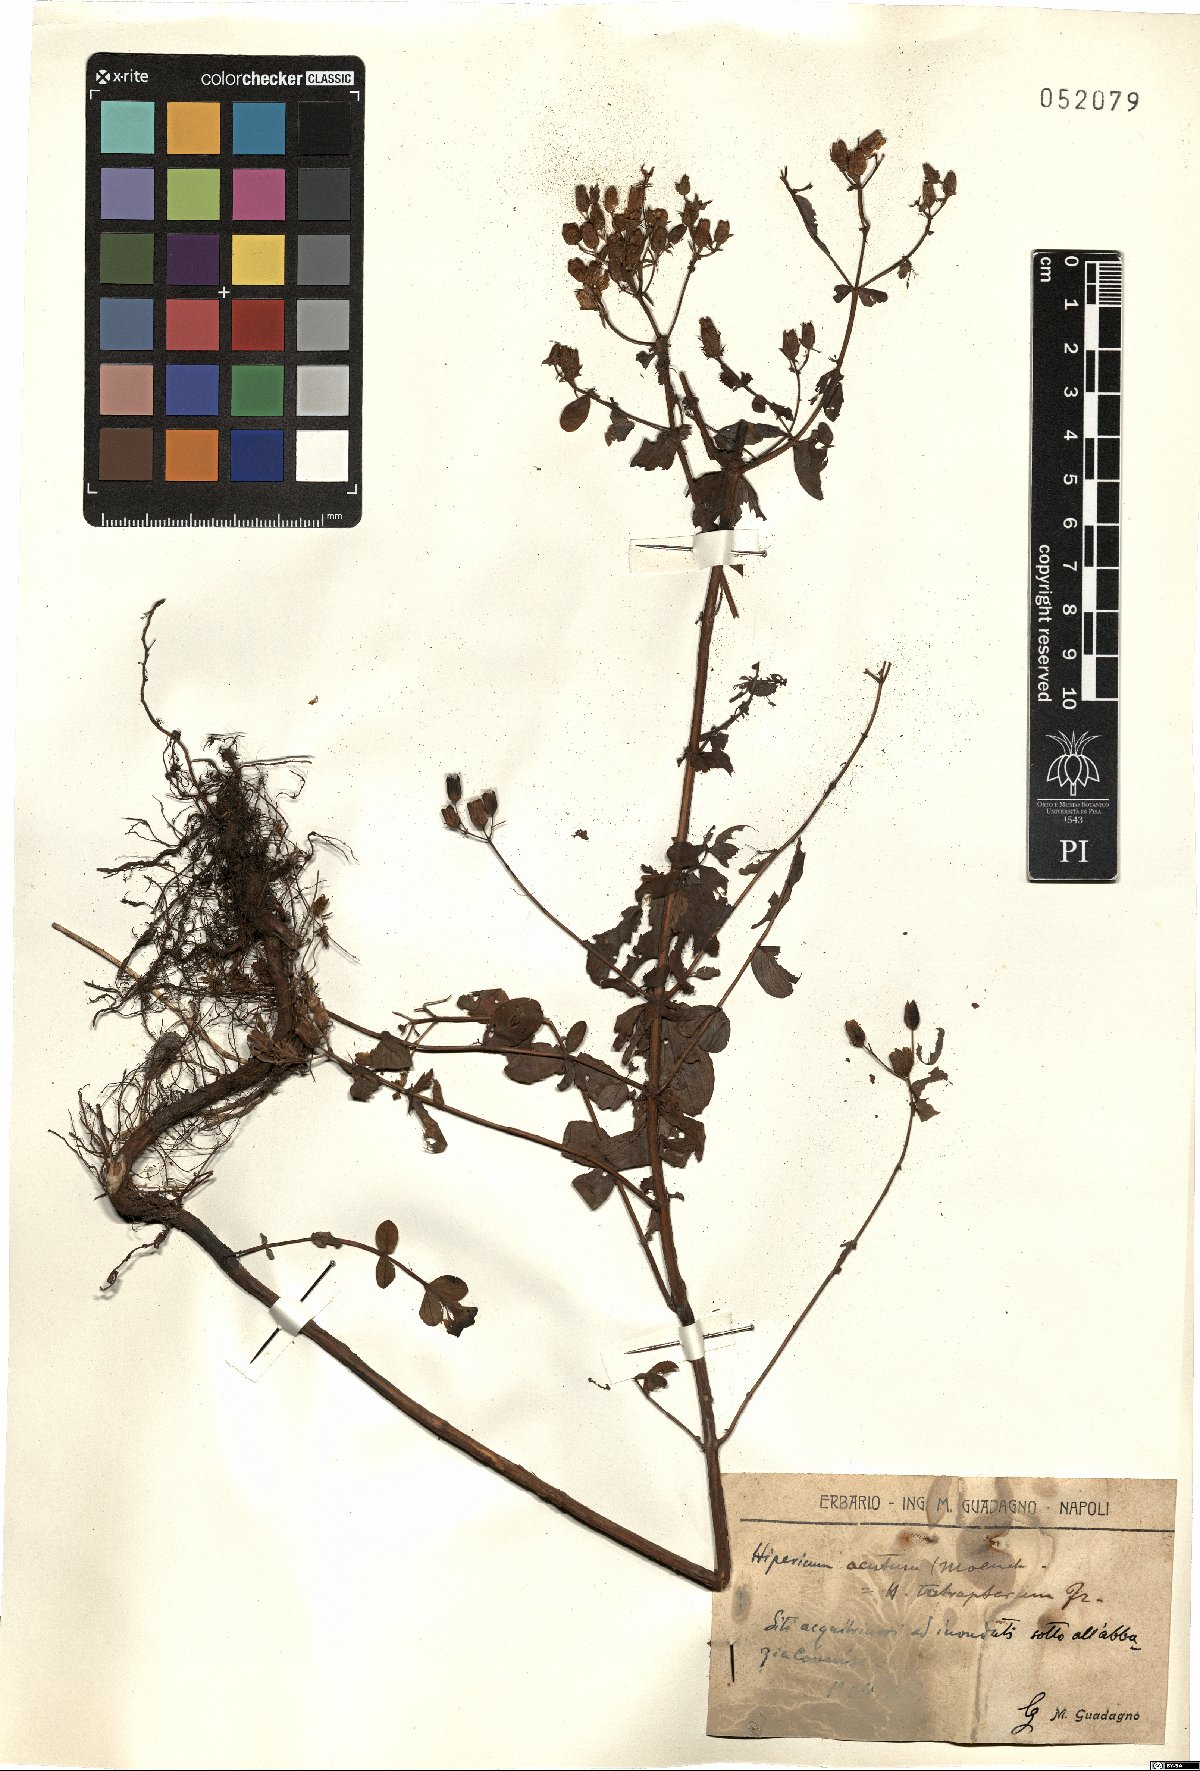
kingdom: Plantae
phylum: Tracheophyta
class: Magnoliopsida
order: Malpighiales
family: Hypericaceae
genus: Hypericum
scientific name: Hypericum tetrapterum
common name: Square-stalked st. john's-wort
